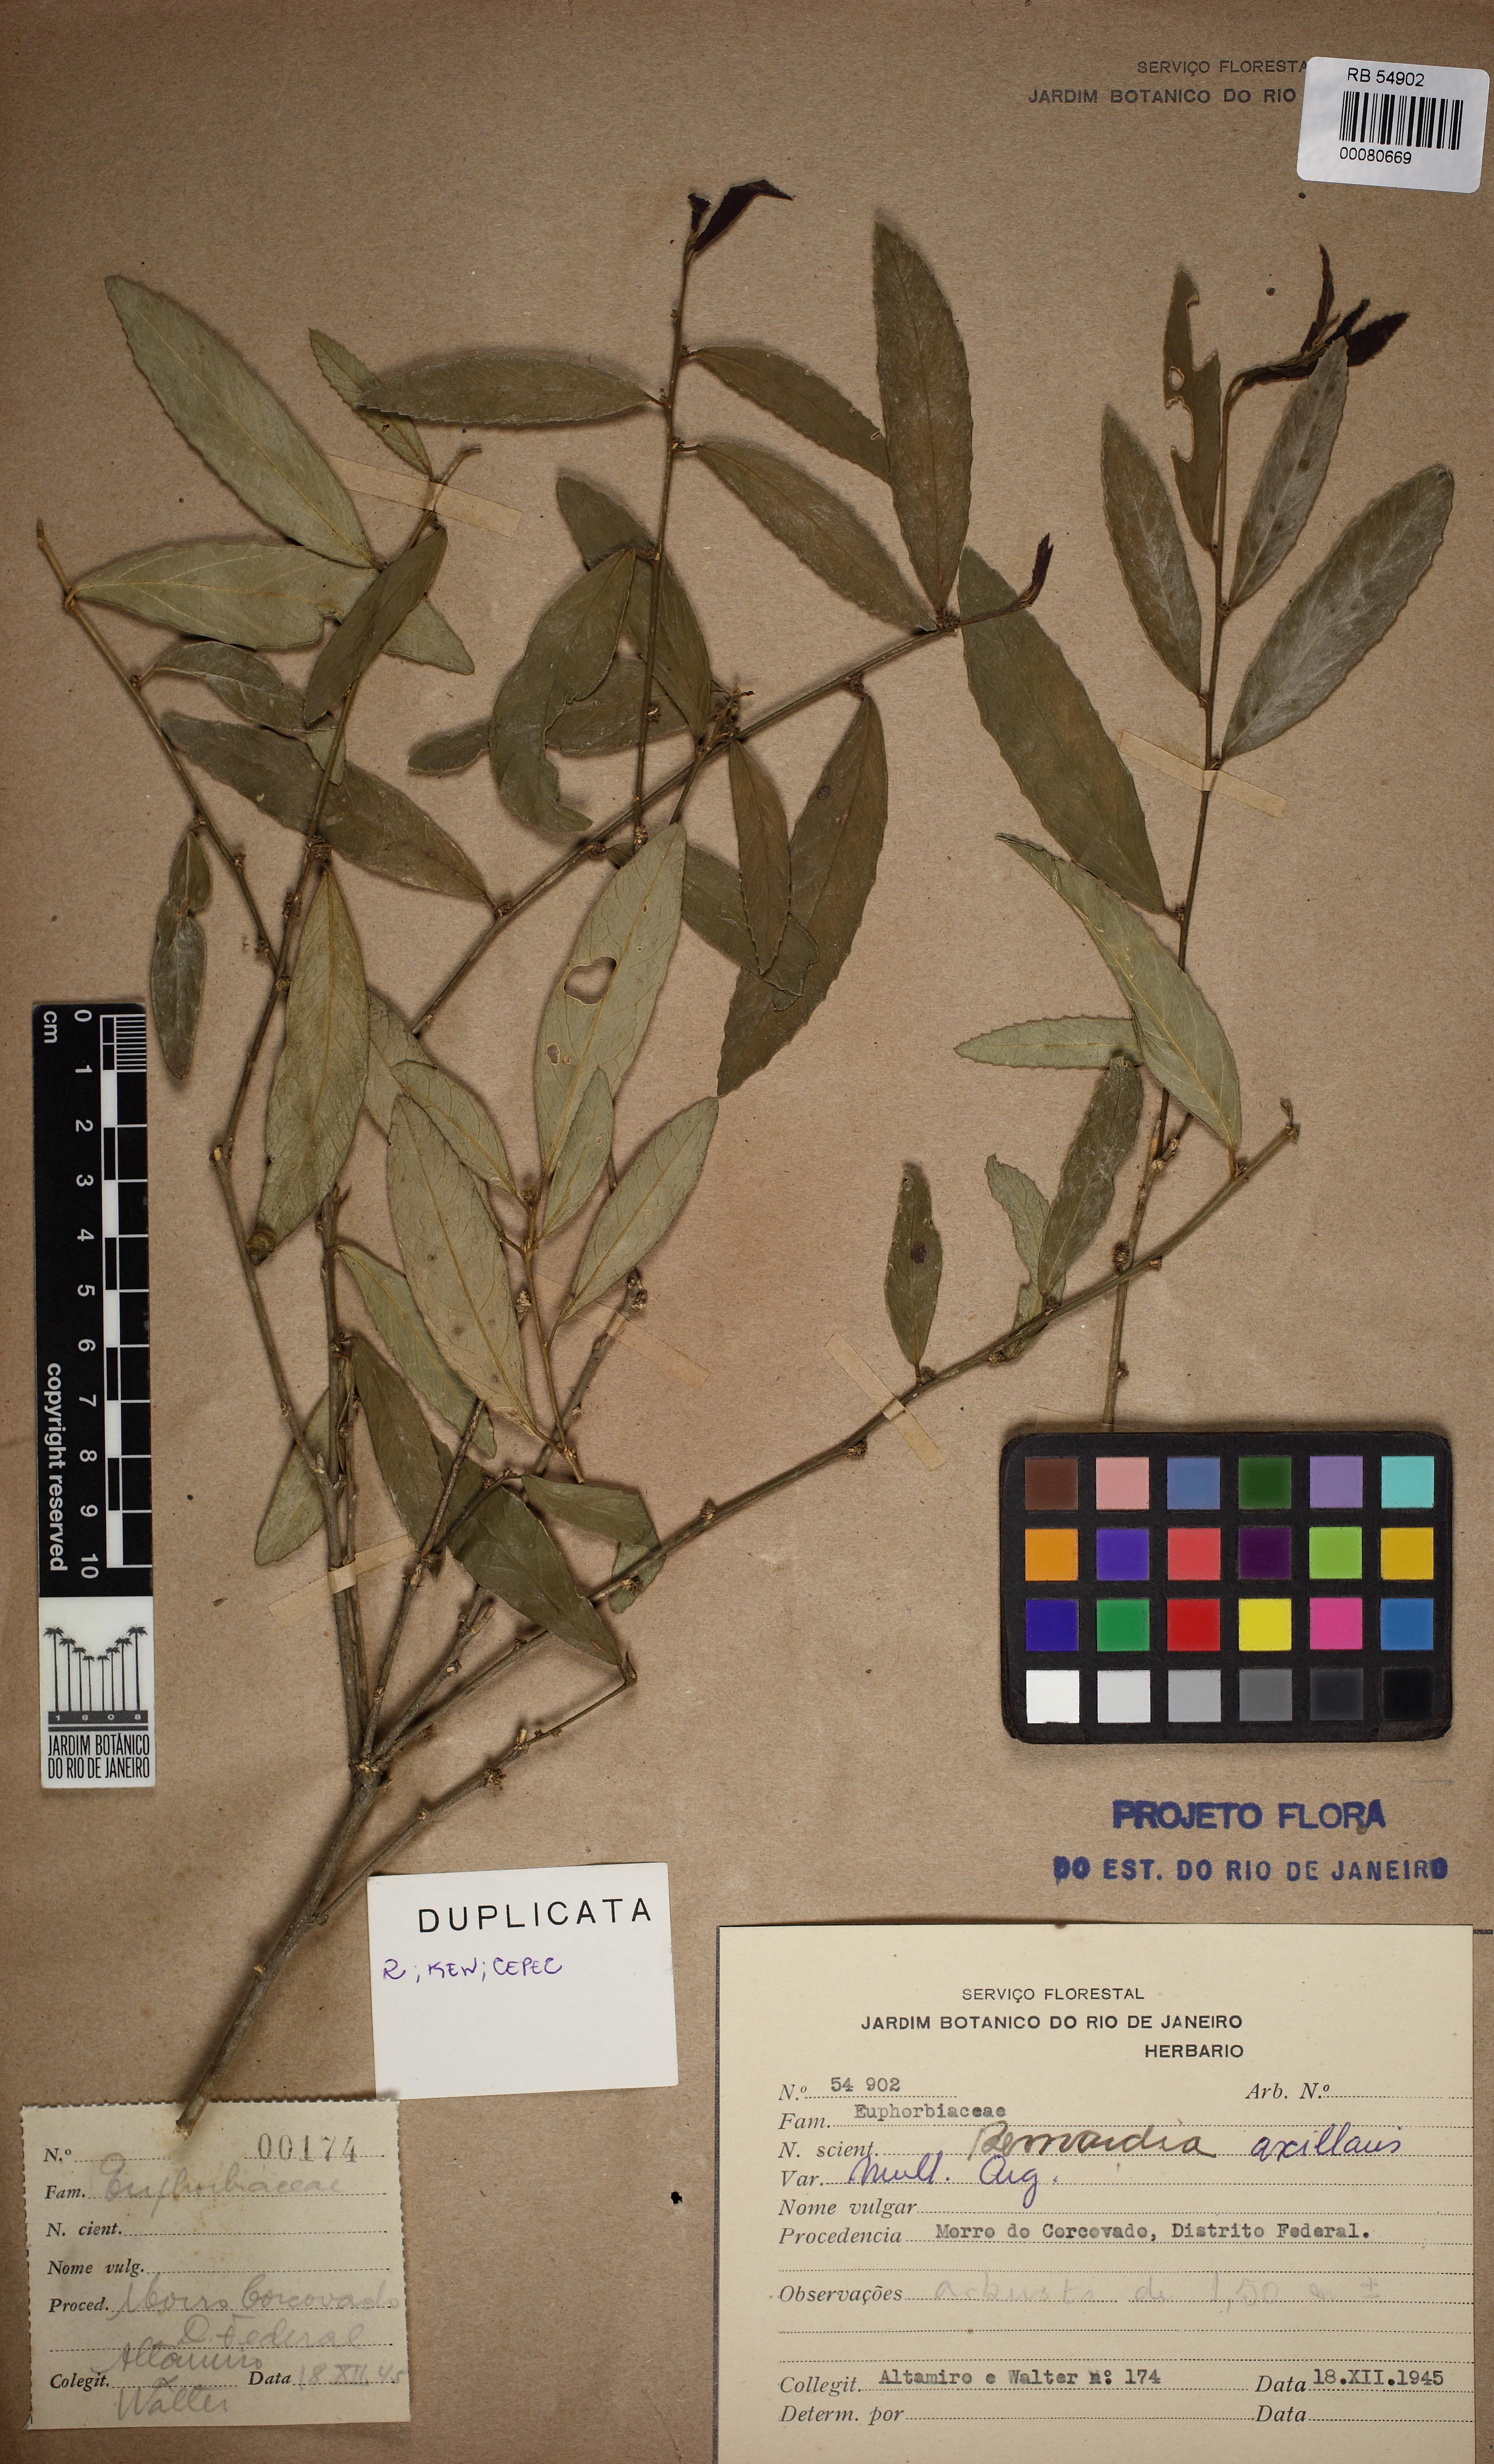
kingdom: Plantae
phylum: Tracheophyta
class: Magnoliopsida
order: Malpighiales
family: Euphorbiaceae
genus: Bernardia
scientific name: Bernardia axillaris
